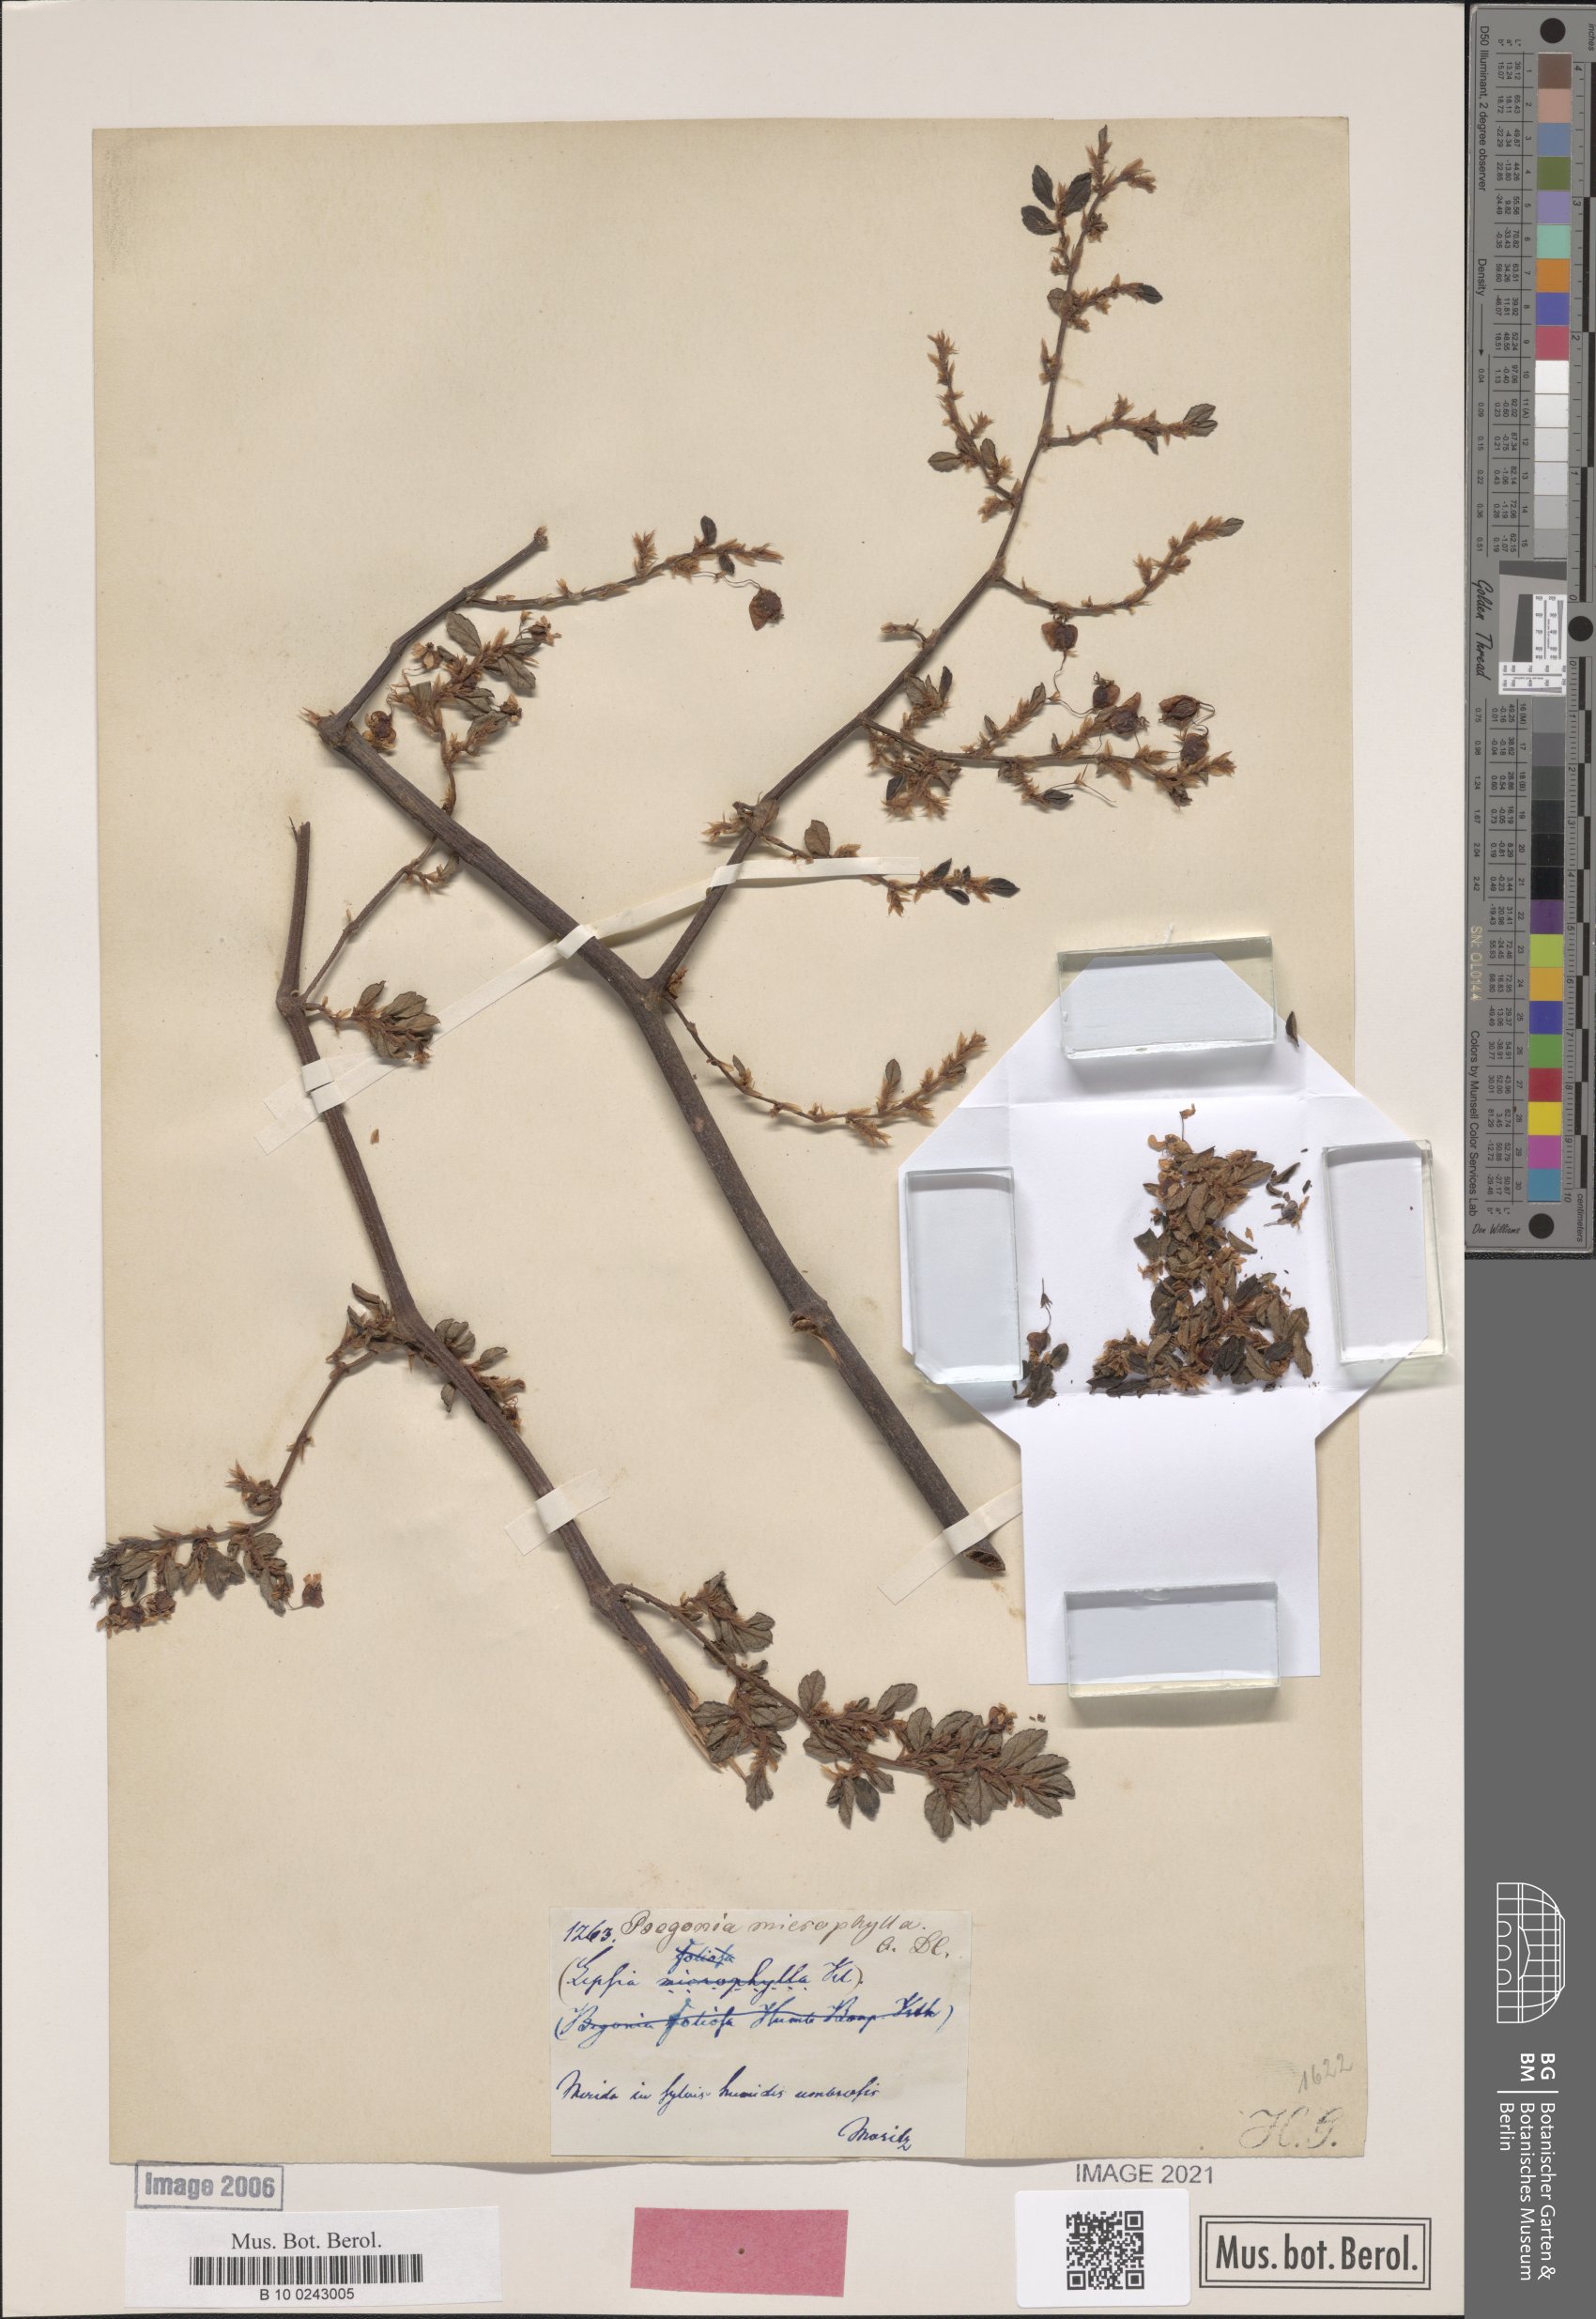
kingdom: Plantae
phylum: Tracheophyta
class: Magnoliopsida
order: Cucurbitales
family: Begoniaceae
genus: Begonia
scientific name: Begonia foliosa
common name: Fern begonia
